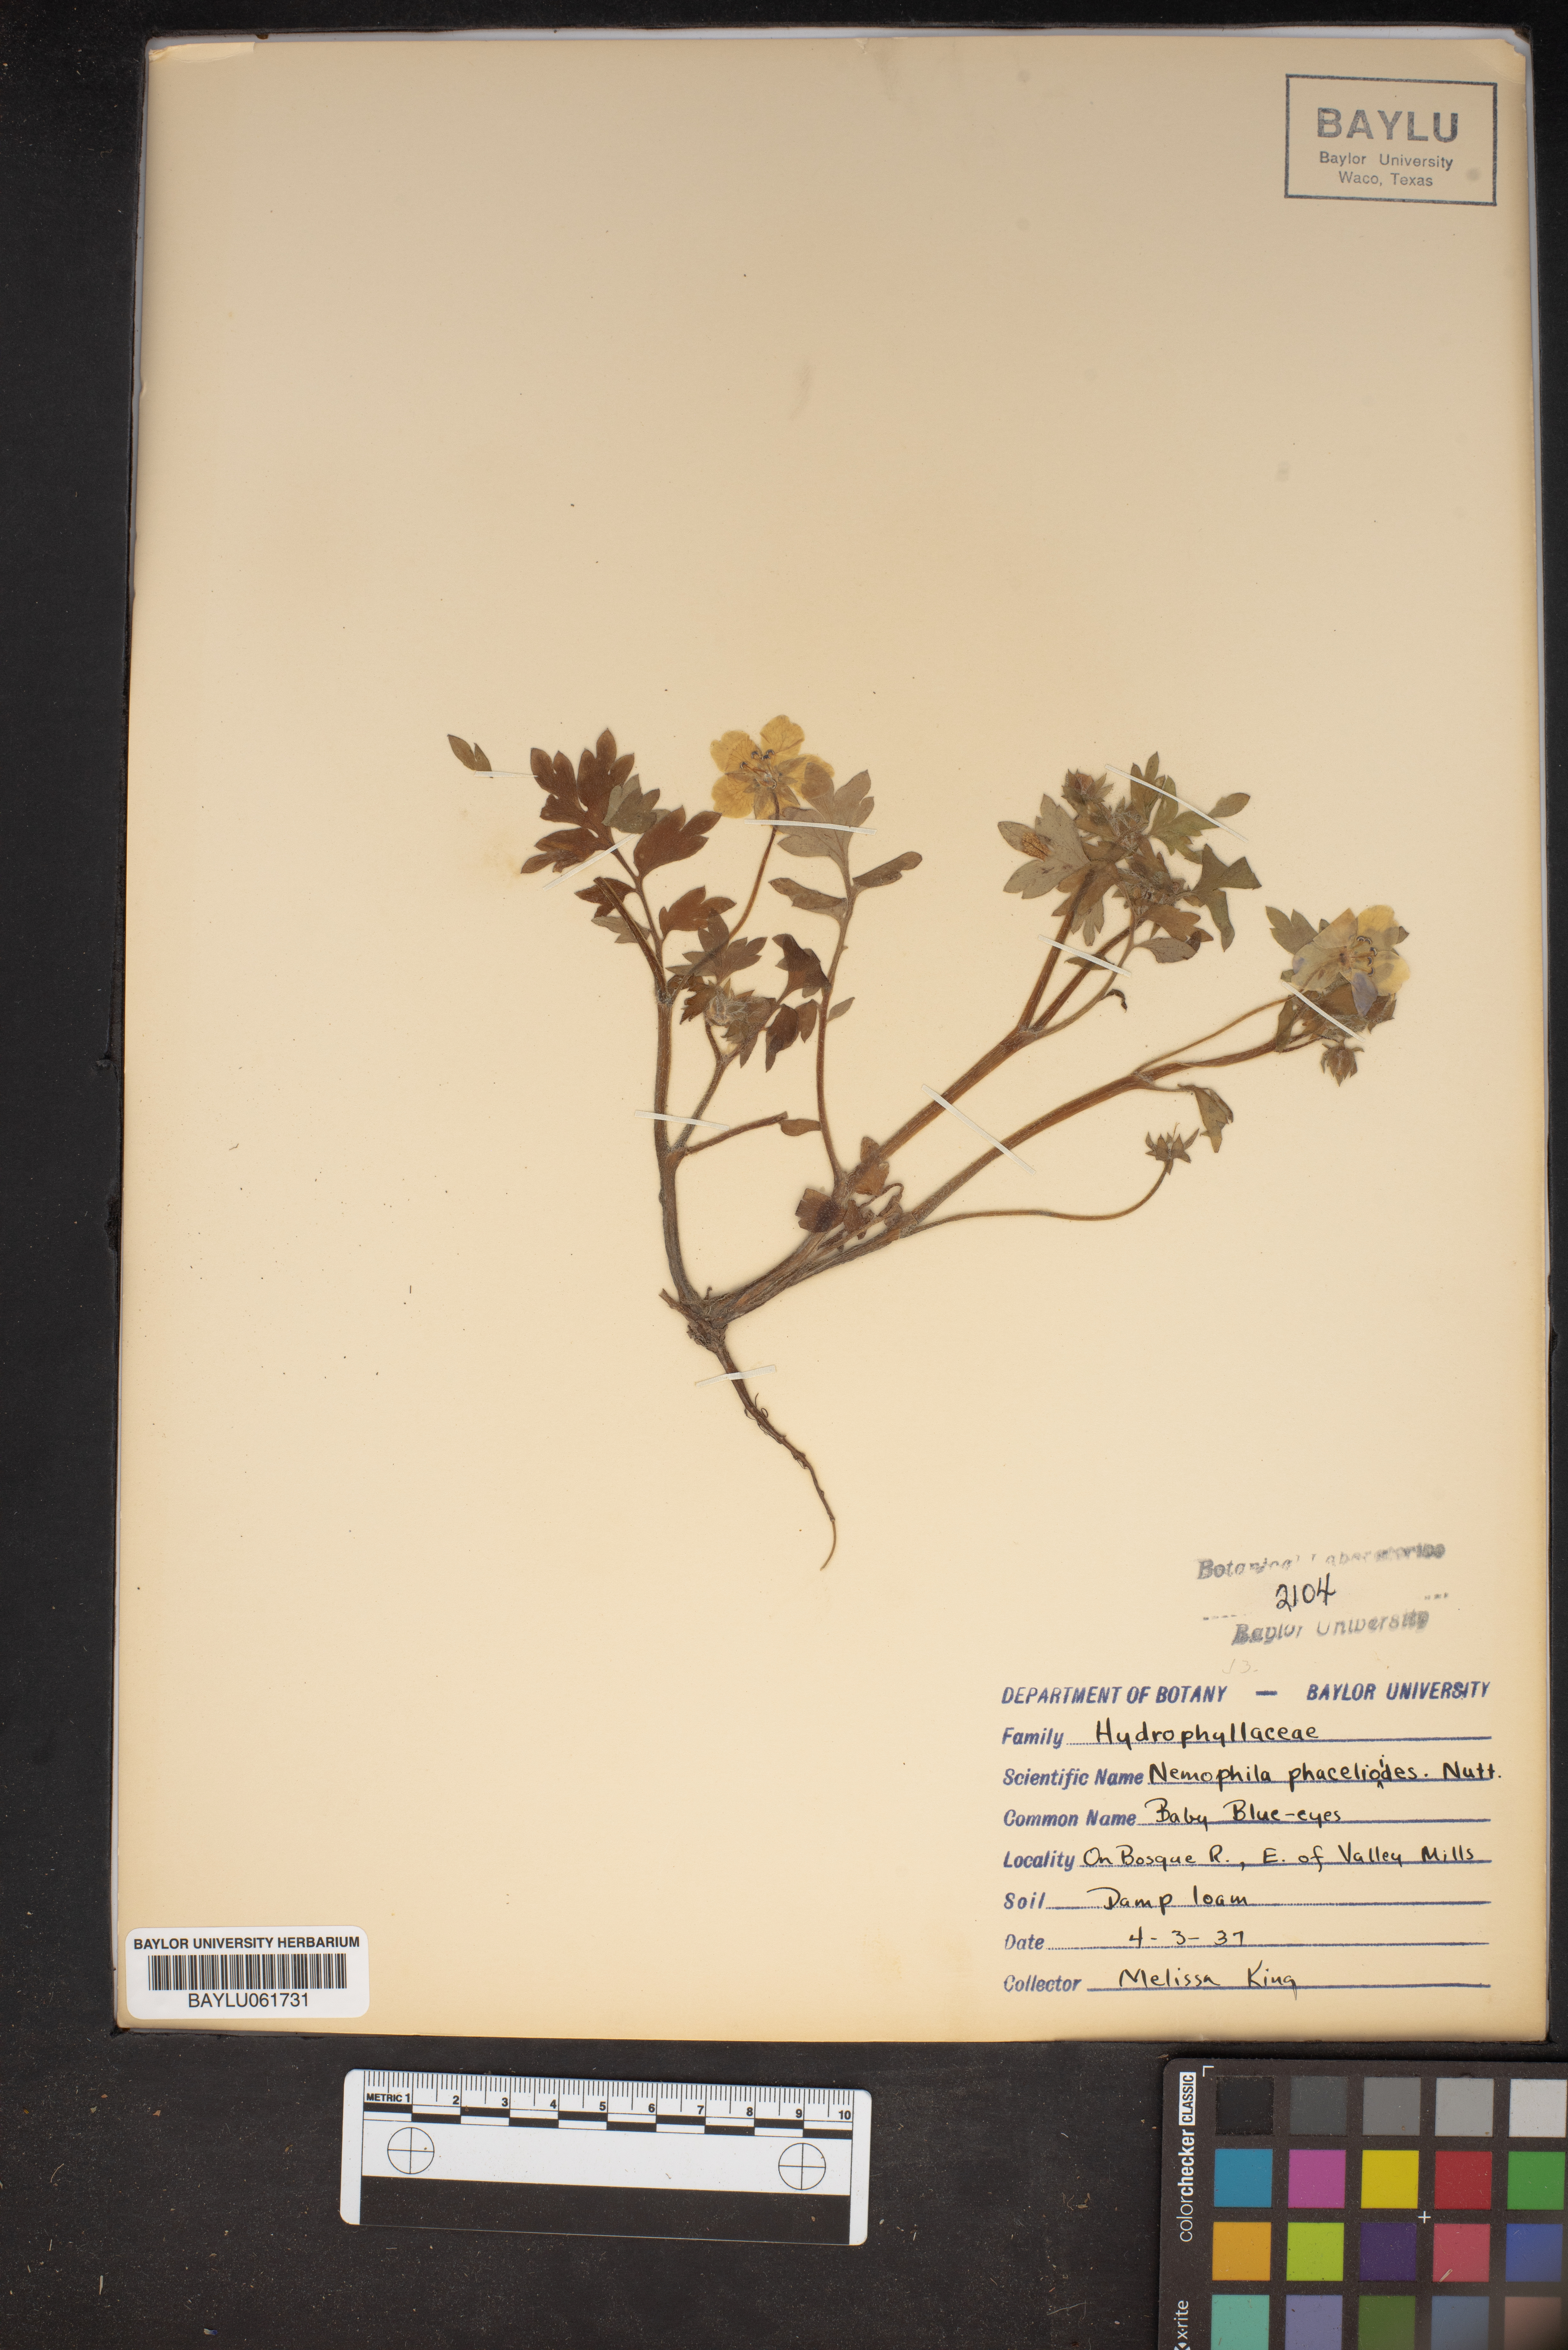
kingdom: Plantae
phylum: Tracheophyta
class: Magnoliopsida
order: Boraginales
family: Hydrophyllaceae
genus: Nemophila
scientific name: Nemophila phacelioides
